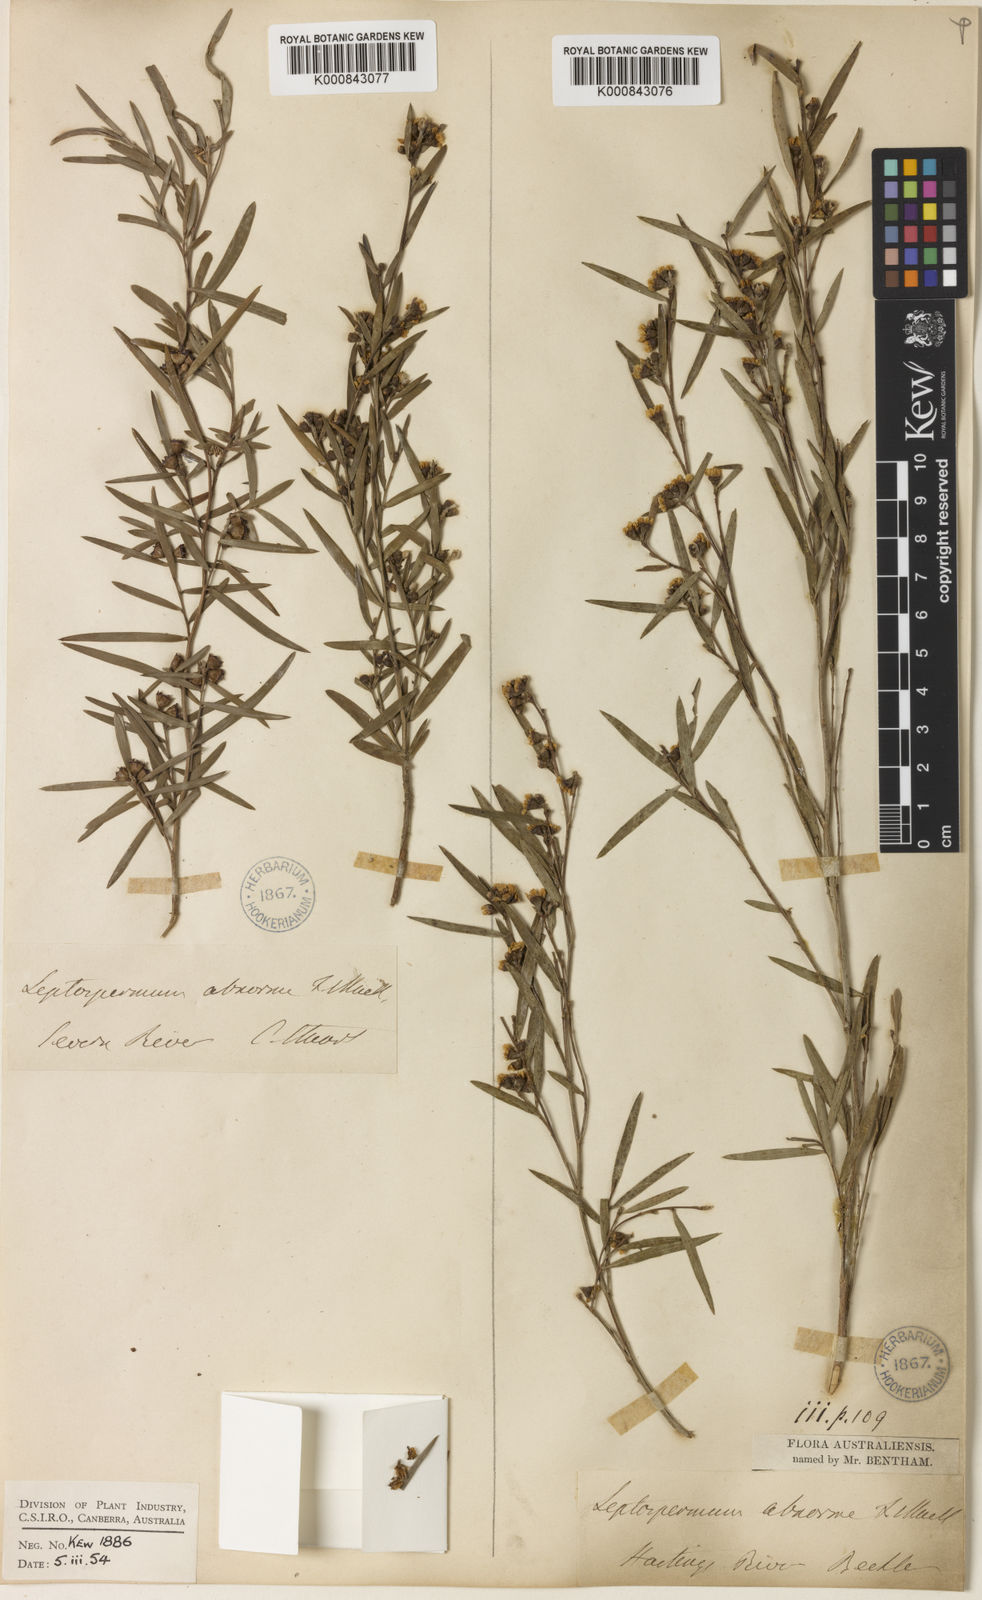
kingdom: Plantae
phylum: Tracheophyta
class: Magnoliopsida
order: Myrtales
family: Myrtaceae
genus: Leptospermum
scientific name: Leptospermum brachyandrum
